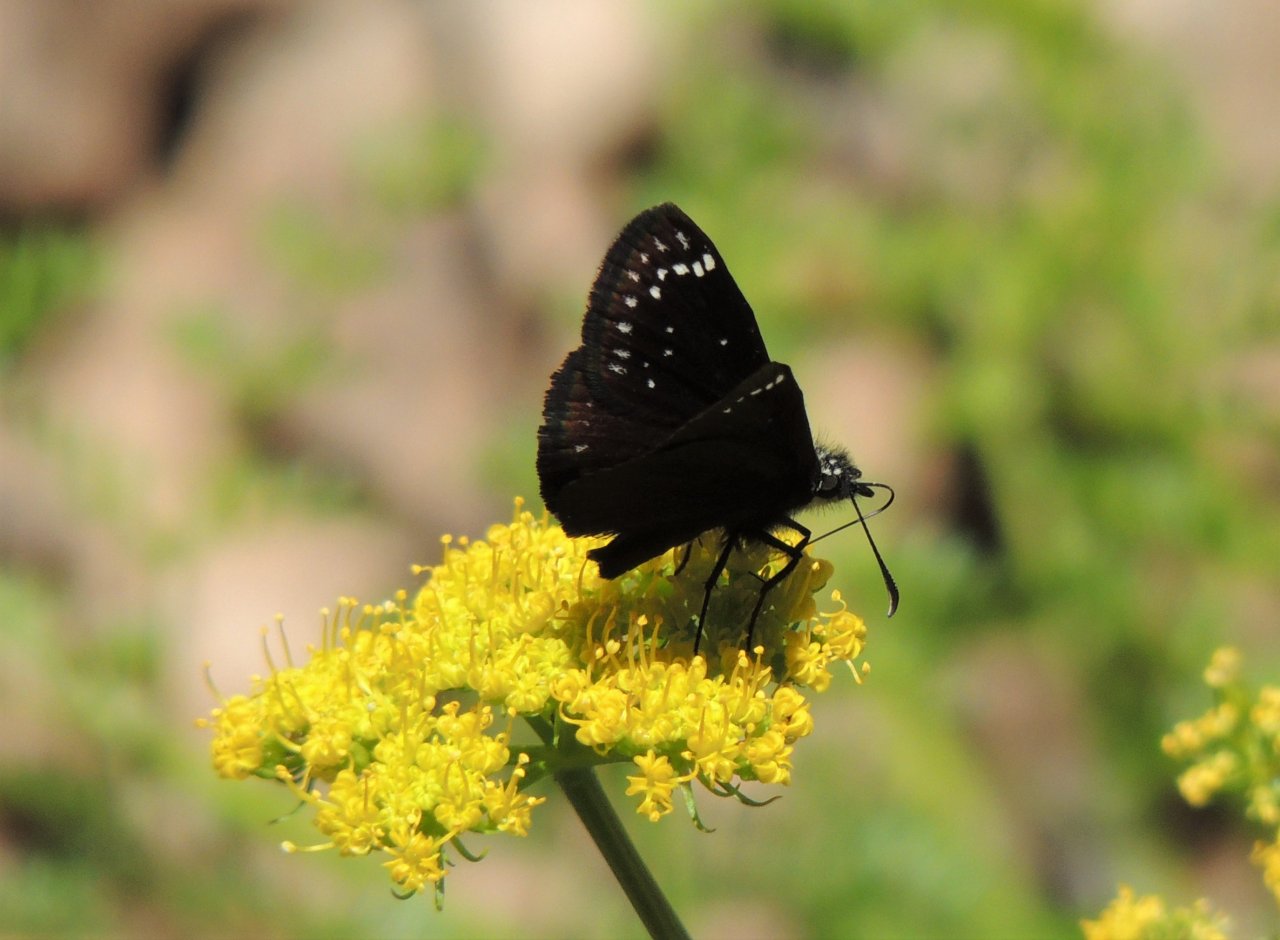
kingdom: Animalia
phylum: Arthropoda
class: Insecta
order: Lepidoptera
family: Hesperiidae
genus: Pholisora
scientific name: Pholisora catullus
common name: Common Sootywing
